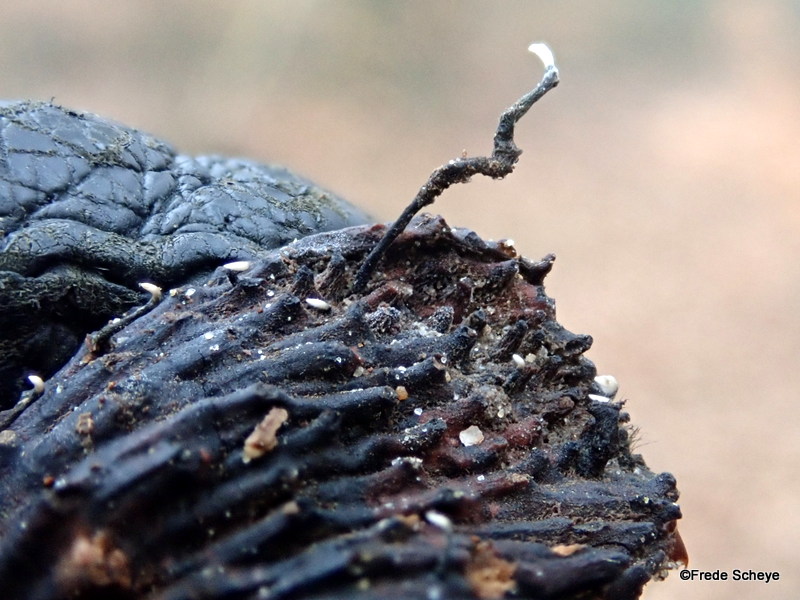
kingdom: Fungi
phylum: Ascomycota
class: Sordariomycetes
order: Xylariales
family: Xylariaceae
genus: Xylaria
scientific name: Xylaria carpophila
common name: bogskål-stødsvamp
